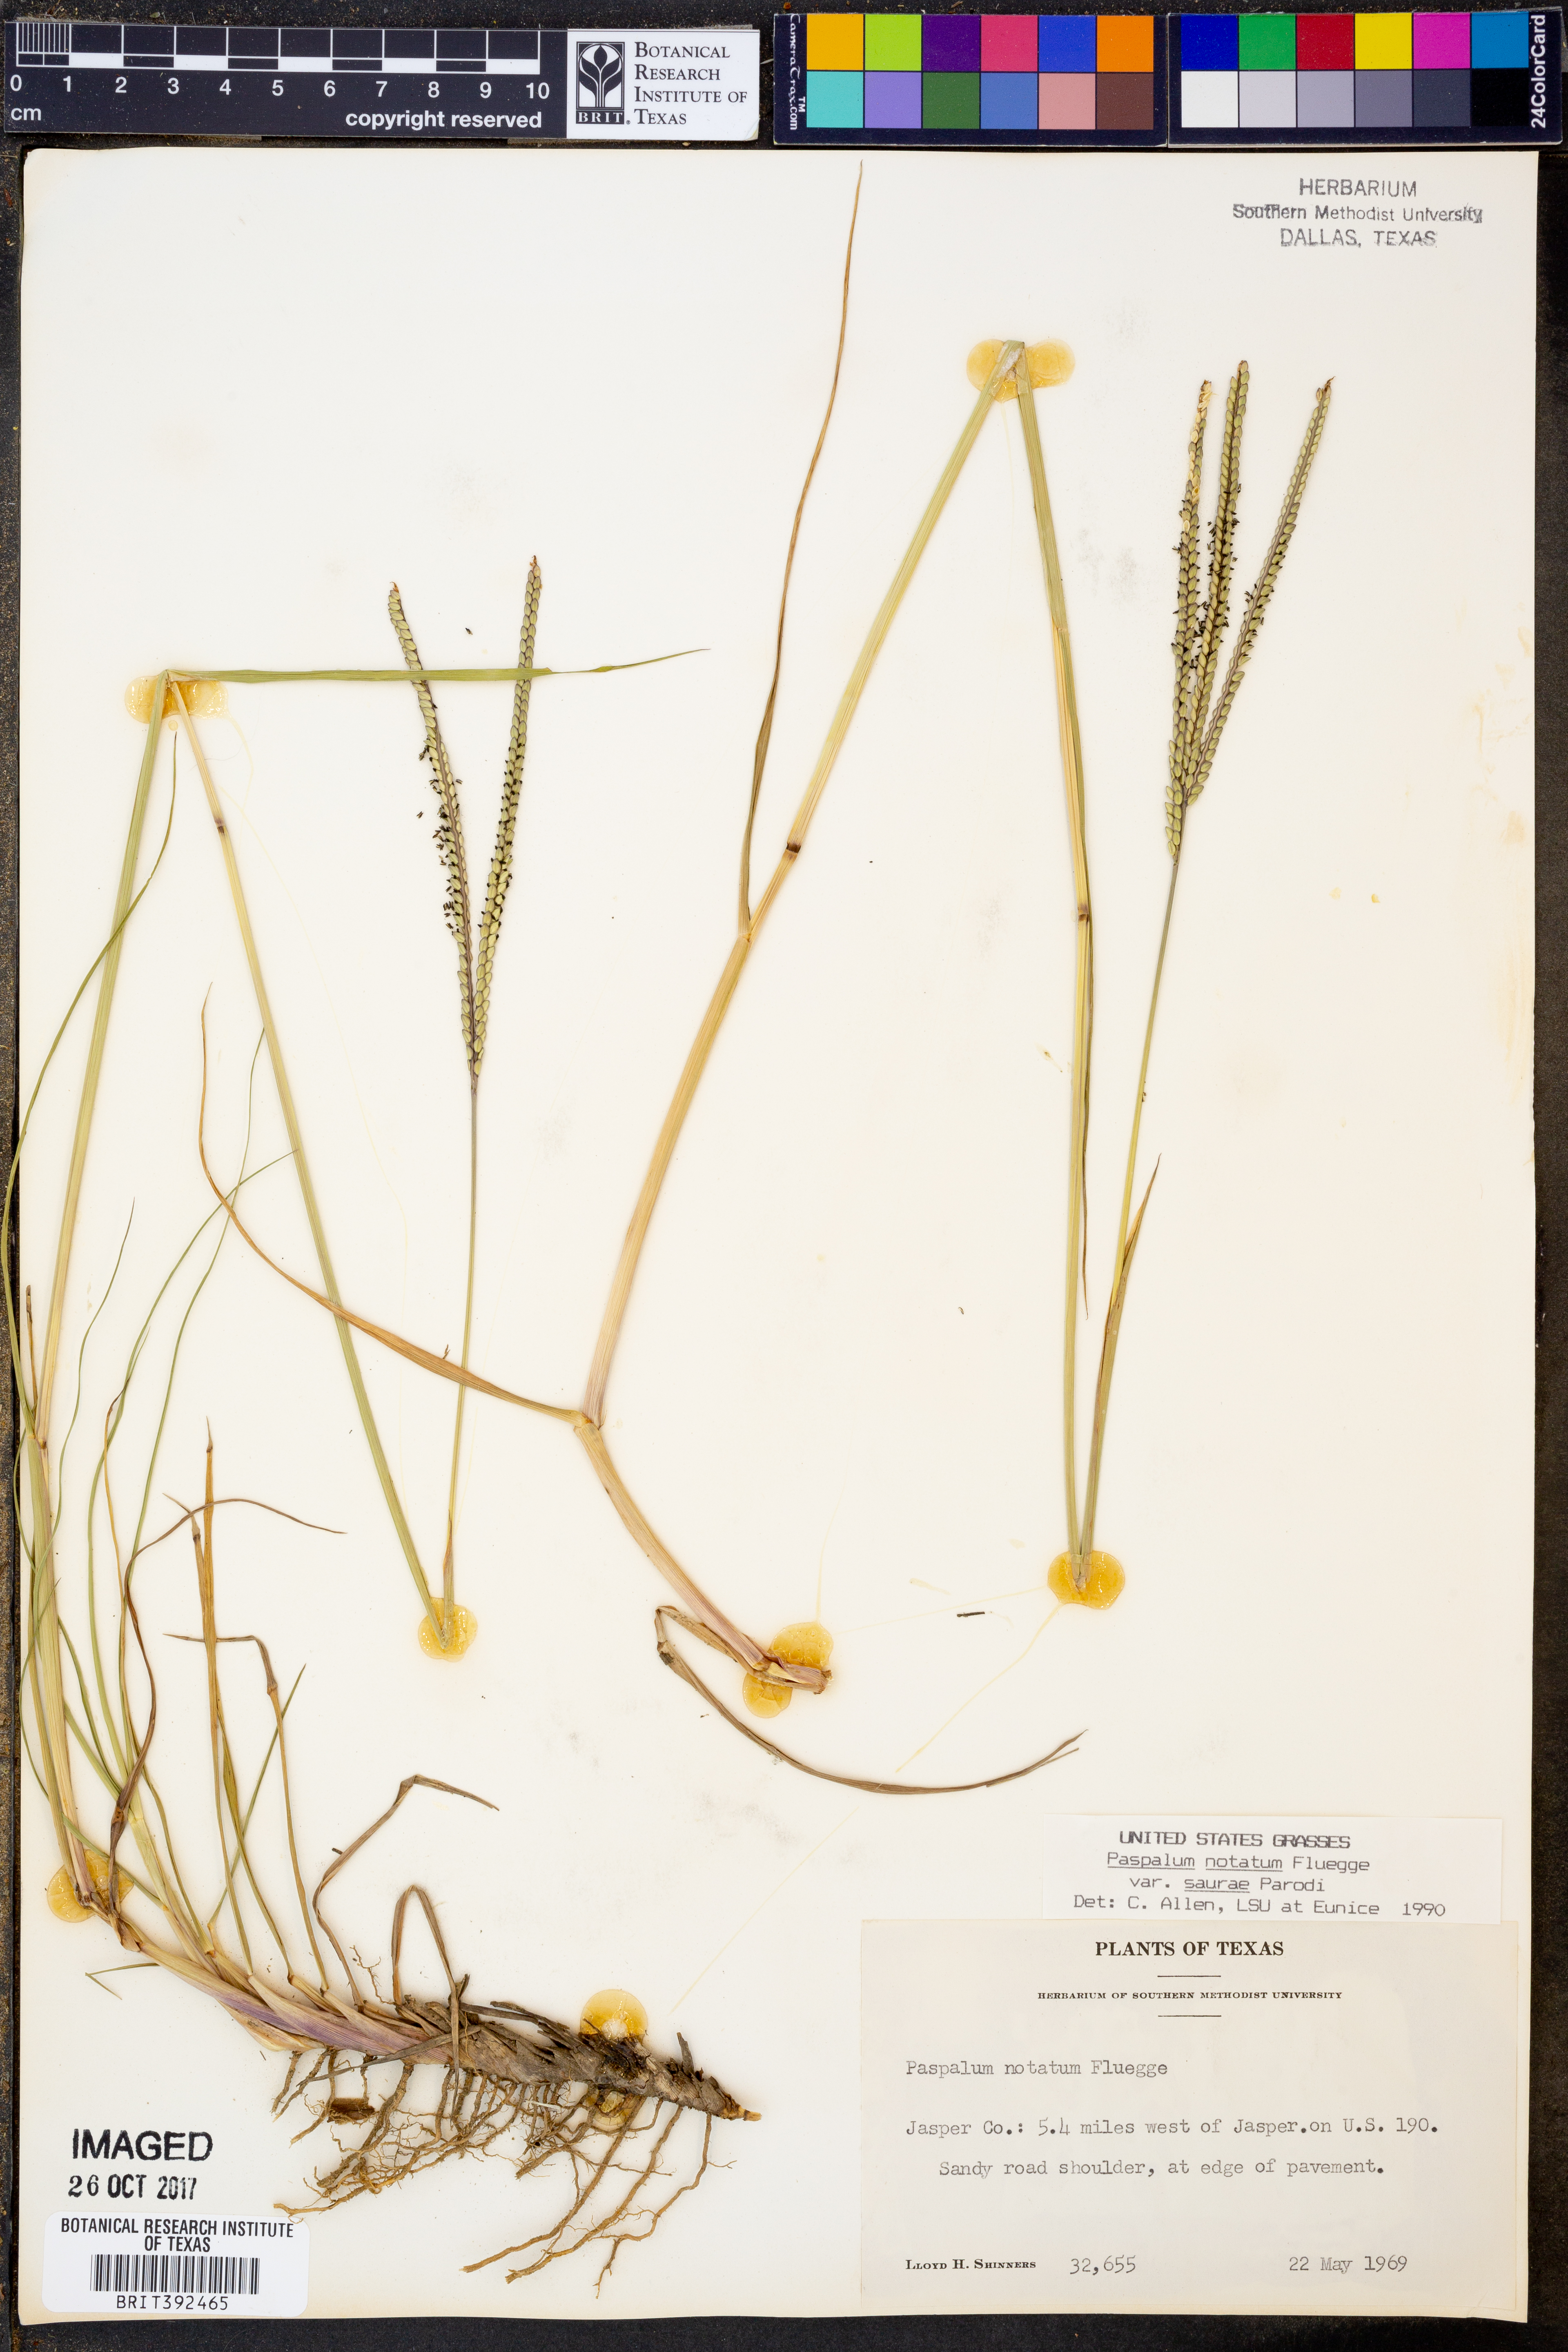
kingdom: Plantae
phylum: Tracheophyta
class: Liliopsida
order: Poales
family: Poaceae
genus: Paspalum
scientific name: Paspalum saurae
